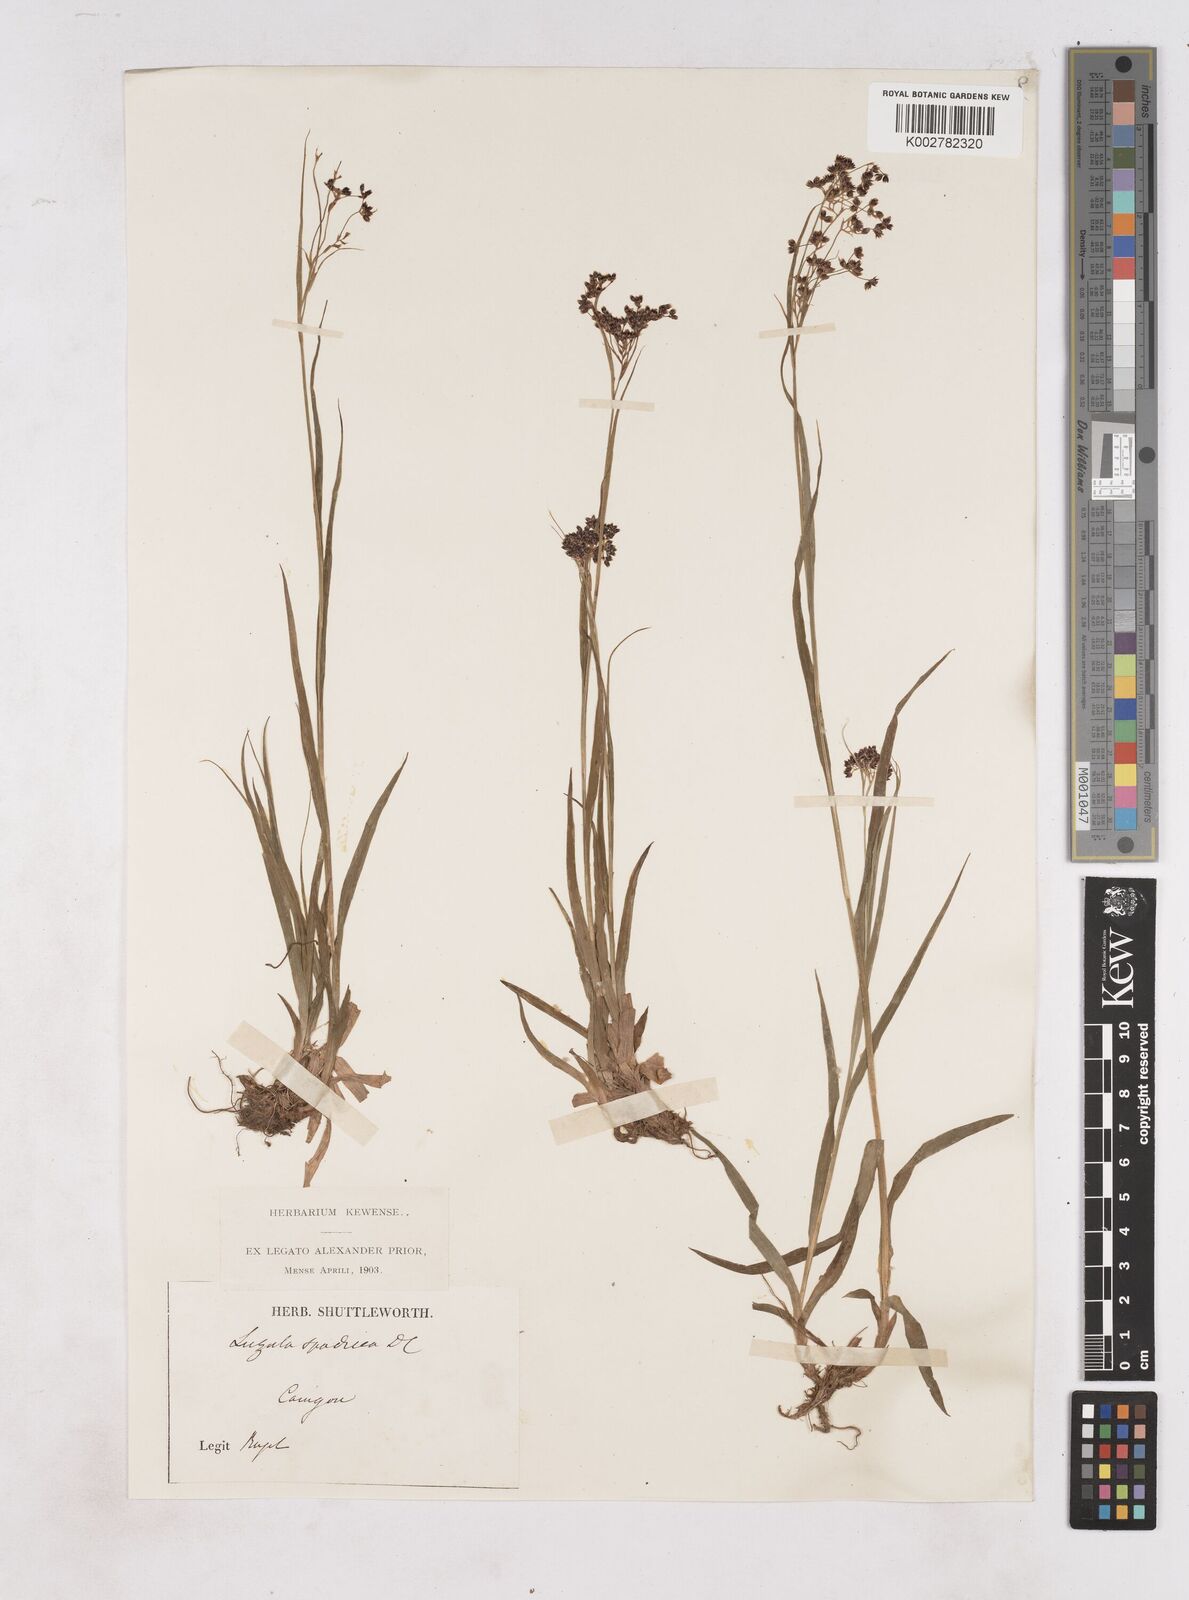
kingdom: Plantae
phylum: Tracheophyta
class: Liliopsida
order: Poales
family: Juncaceae
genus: Luzula
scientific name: Luzula alpinopilosa
